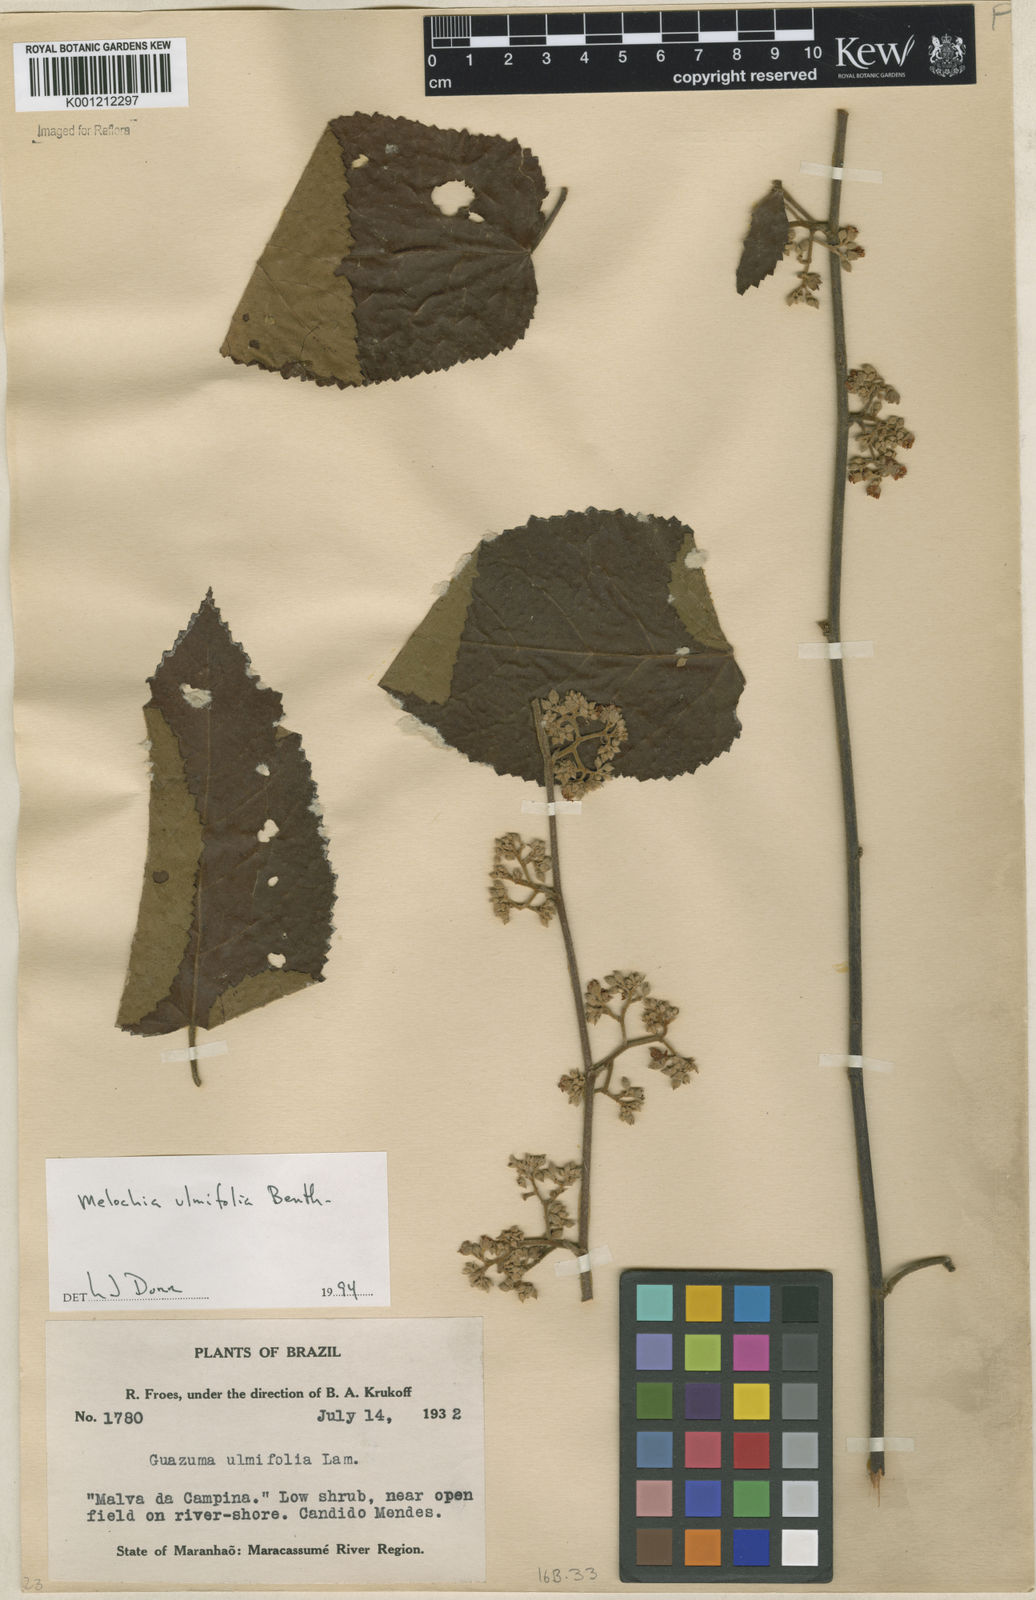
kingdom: Plantae
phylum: Tracheophyta
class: Magnoliopsida
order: Malvales
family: Malvaceae
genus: Melochia
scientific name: Melochia ulmifolia
